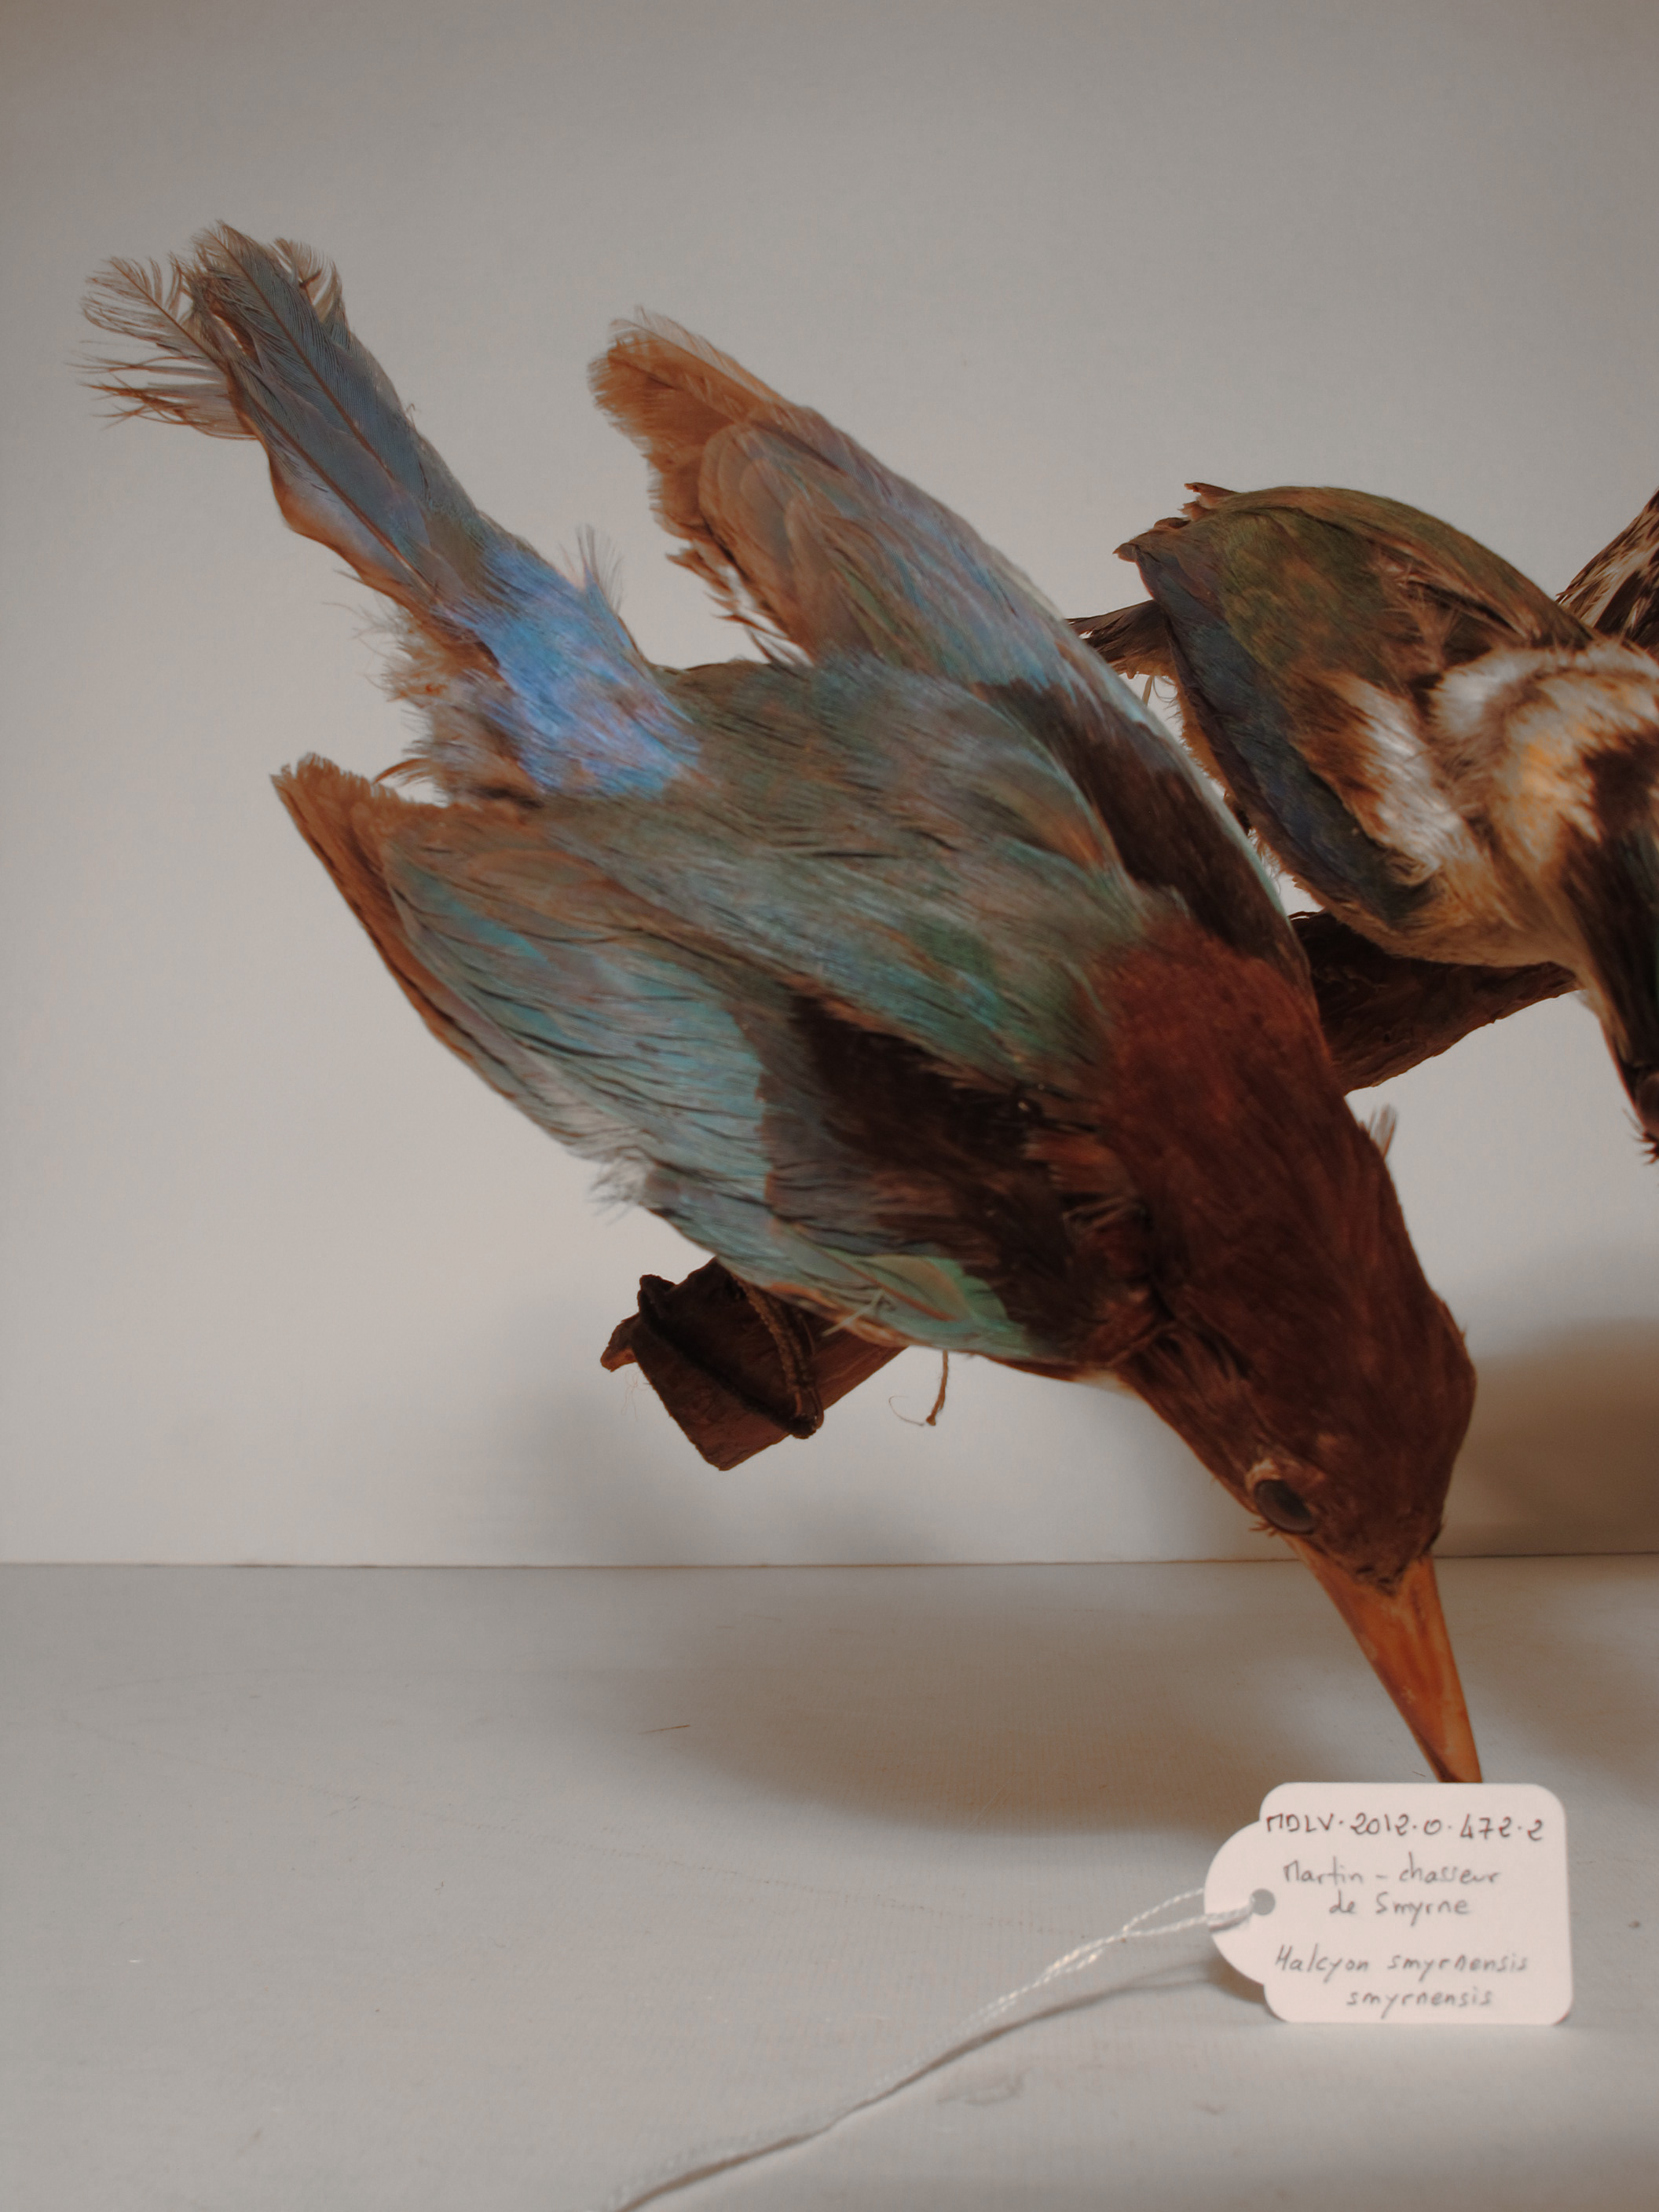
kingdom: Animalia
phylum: Chordata
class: Aves
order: Coraciiformes
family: Alcedinidae
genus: Halcyon
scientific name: Halcyon smyrnensis
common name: White-throated Kingfisher
